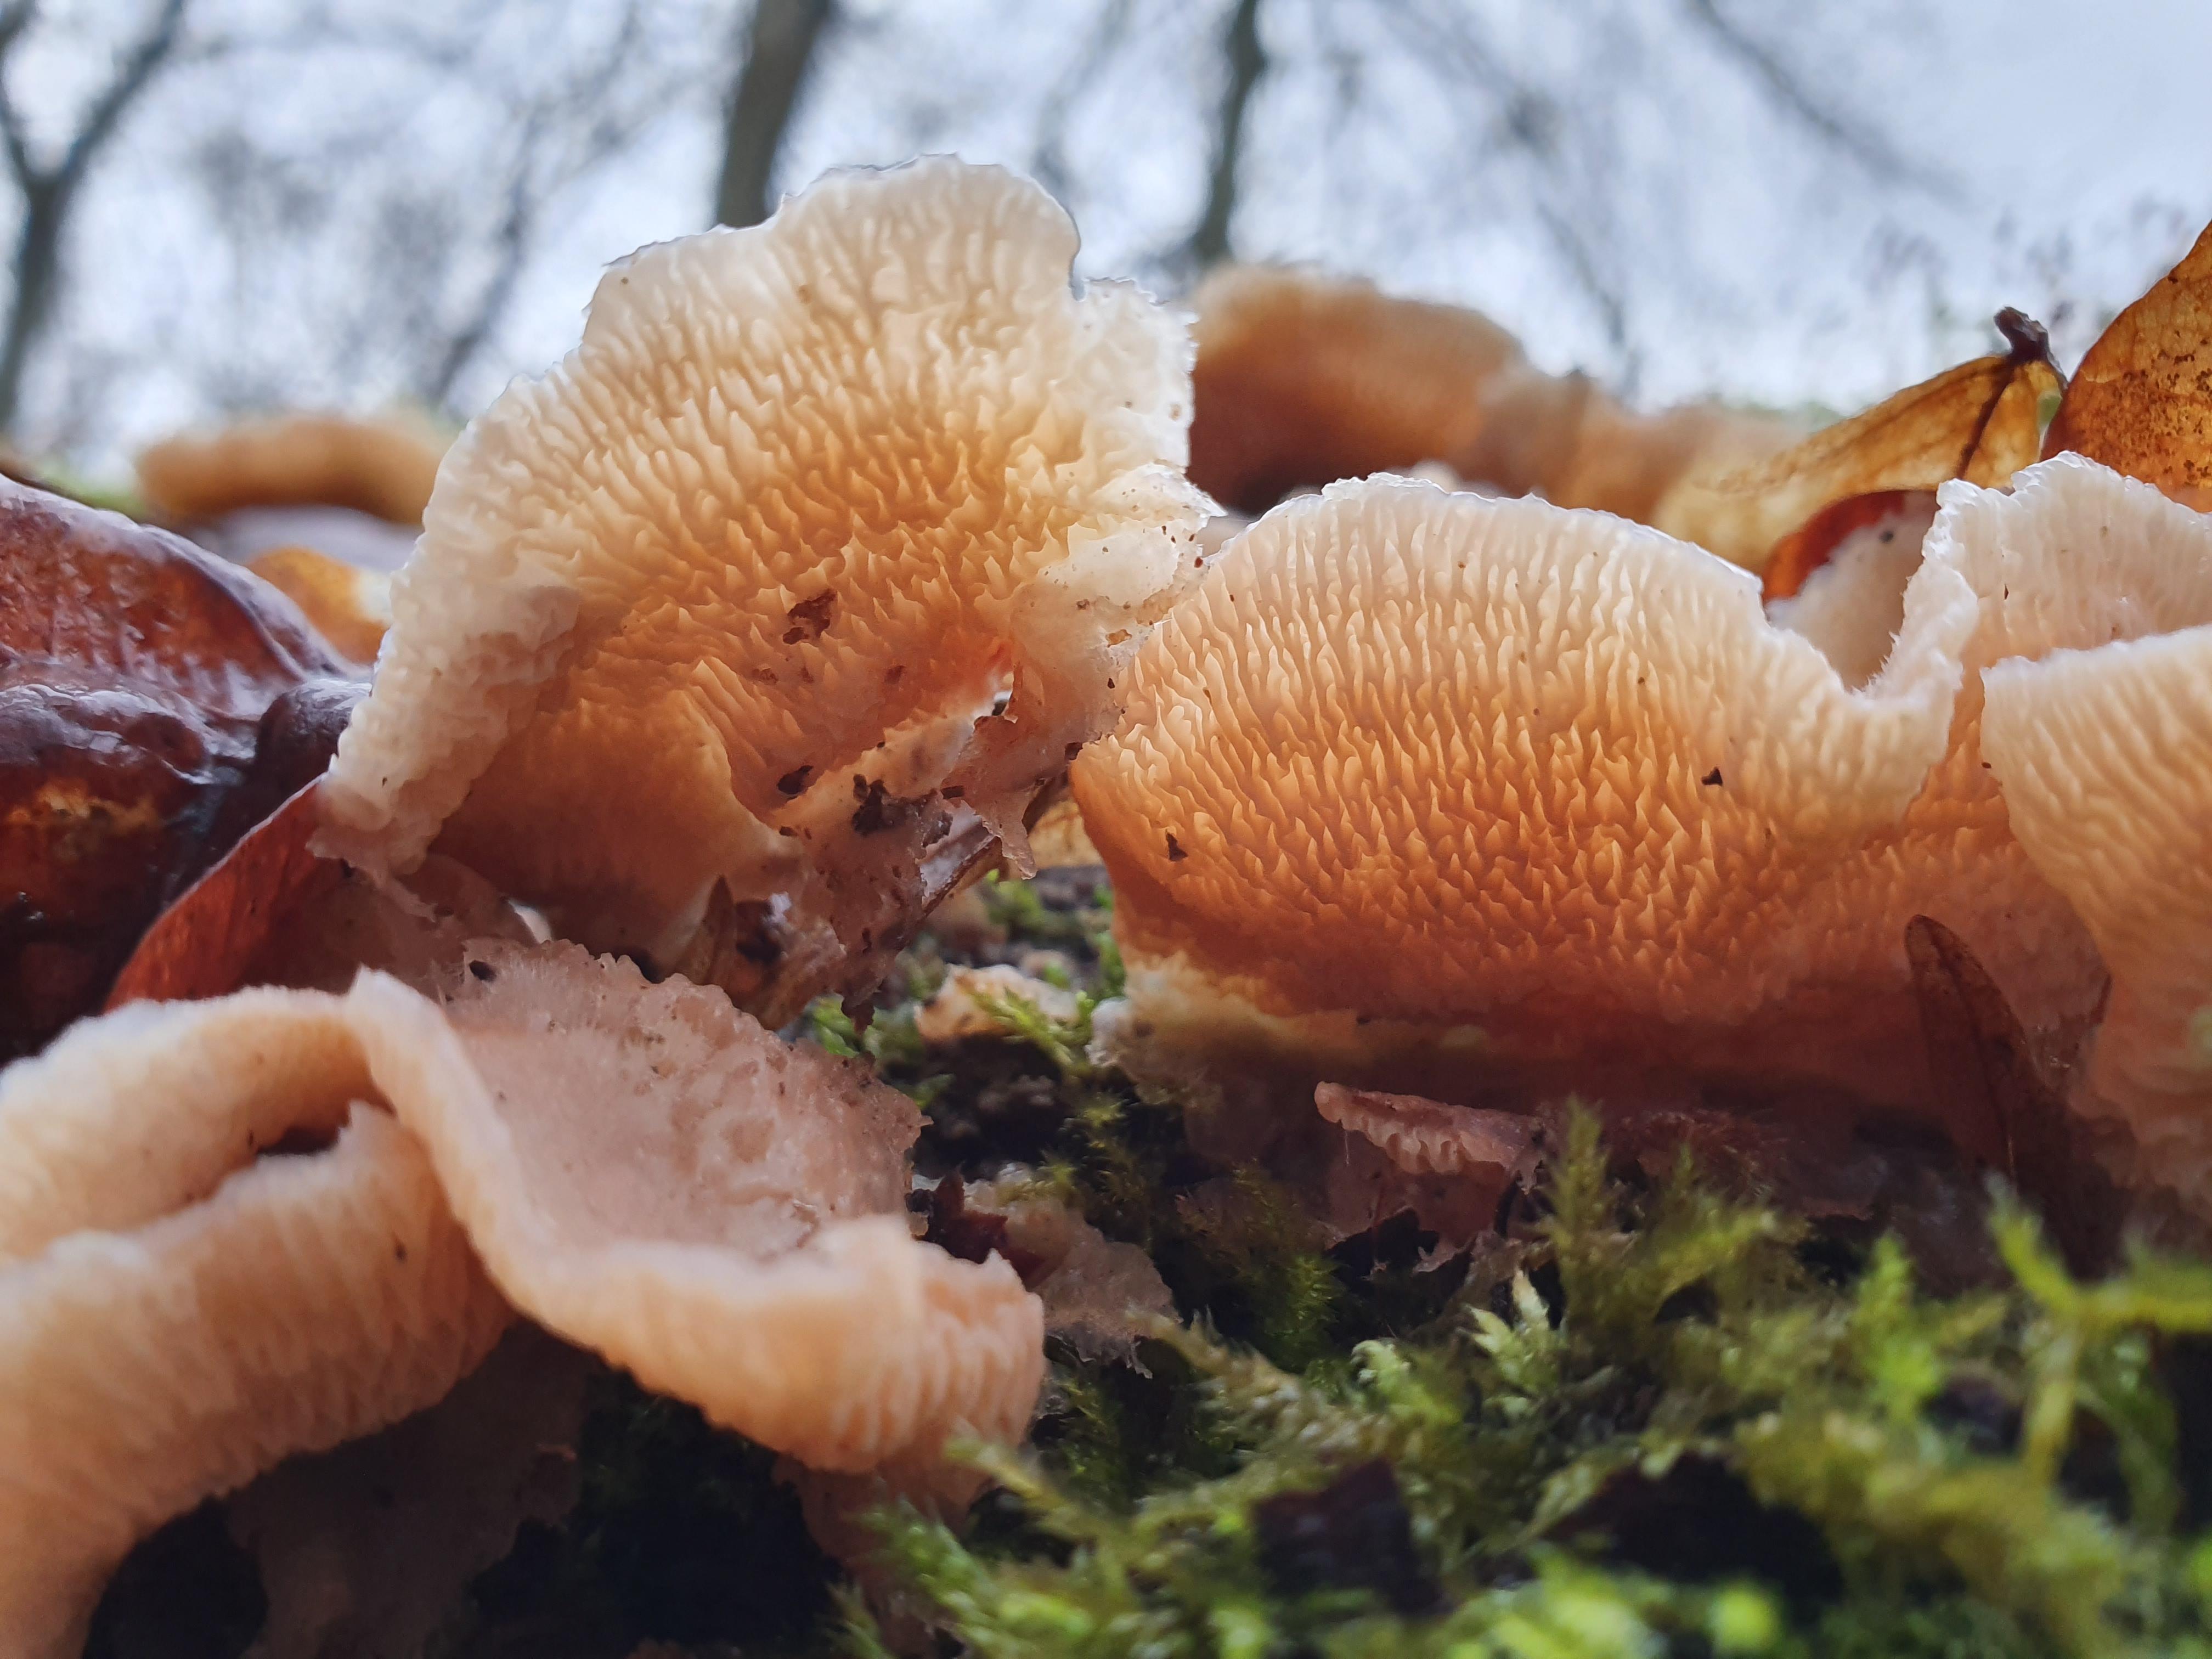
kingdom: Fungi
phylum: Basidiomycota
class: Agaricomycetes
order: Polyporales
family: Meruliaceae
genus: Phlebia
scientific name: Phlebia tremellosa
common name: bævrende åresvamp
